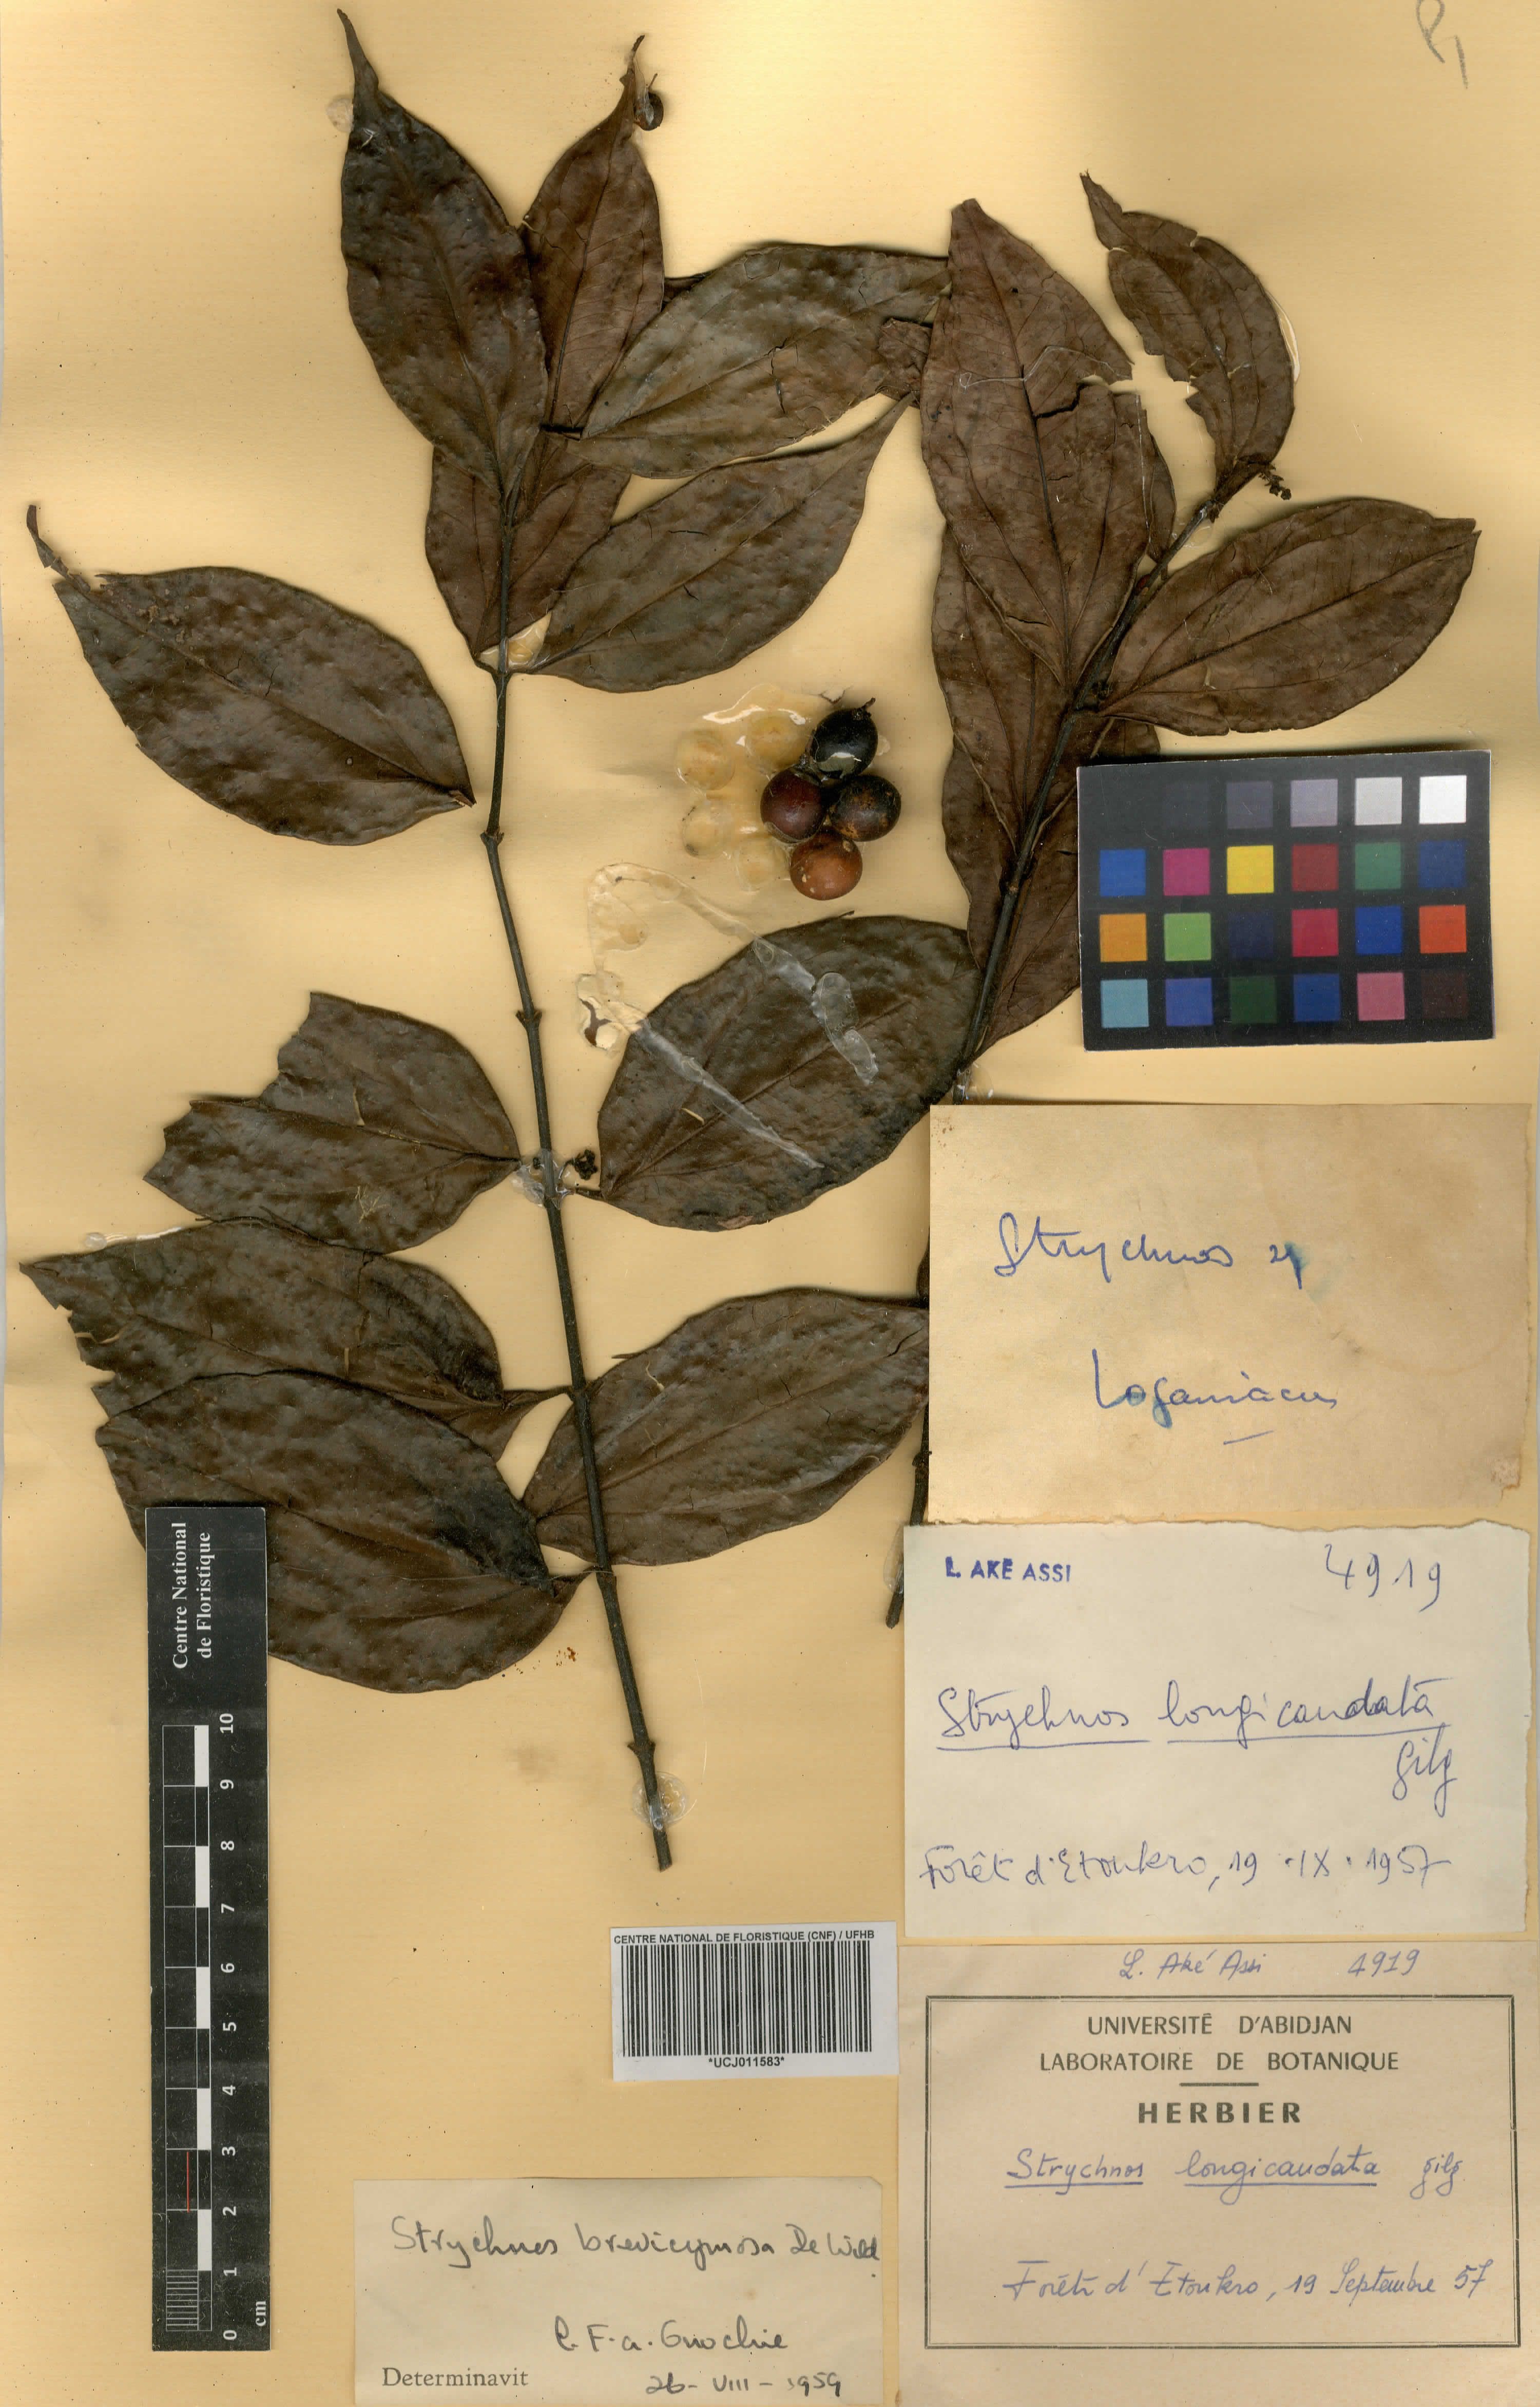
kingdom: Plantae
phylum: Tracheophyta
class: Magnoliopsida
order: Gentianales
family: Loganiaceae
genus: Strychnos
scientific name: Strychnos longicaudata
